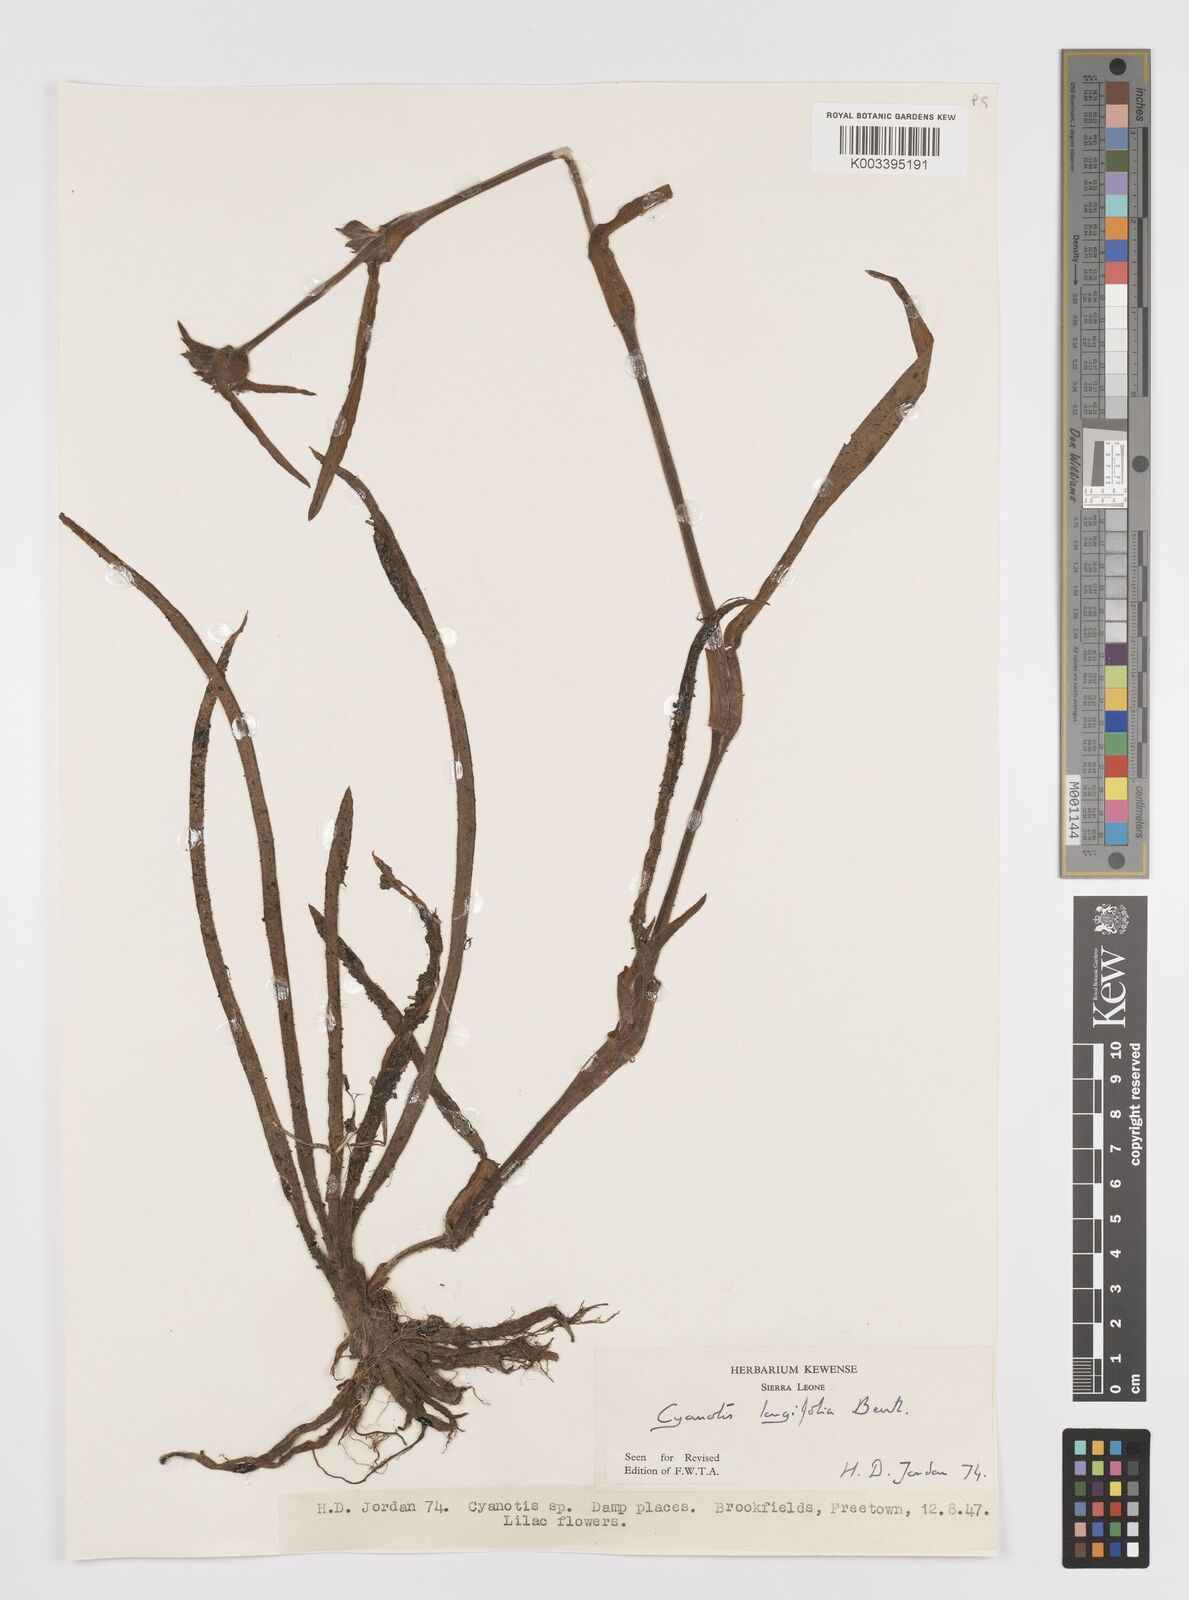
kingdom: Plantae
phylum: Tracheophyta
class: Liliopsida
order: Commelinales
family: Commelinaceae
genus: Cyanotis
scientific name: Cyanotis
